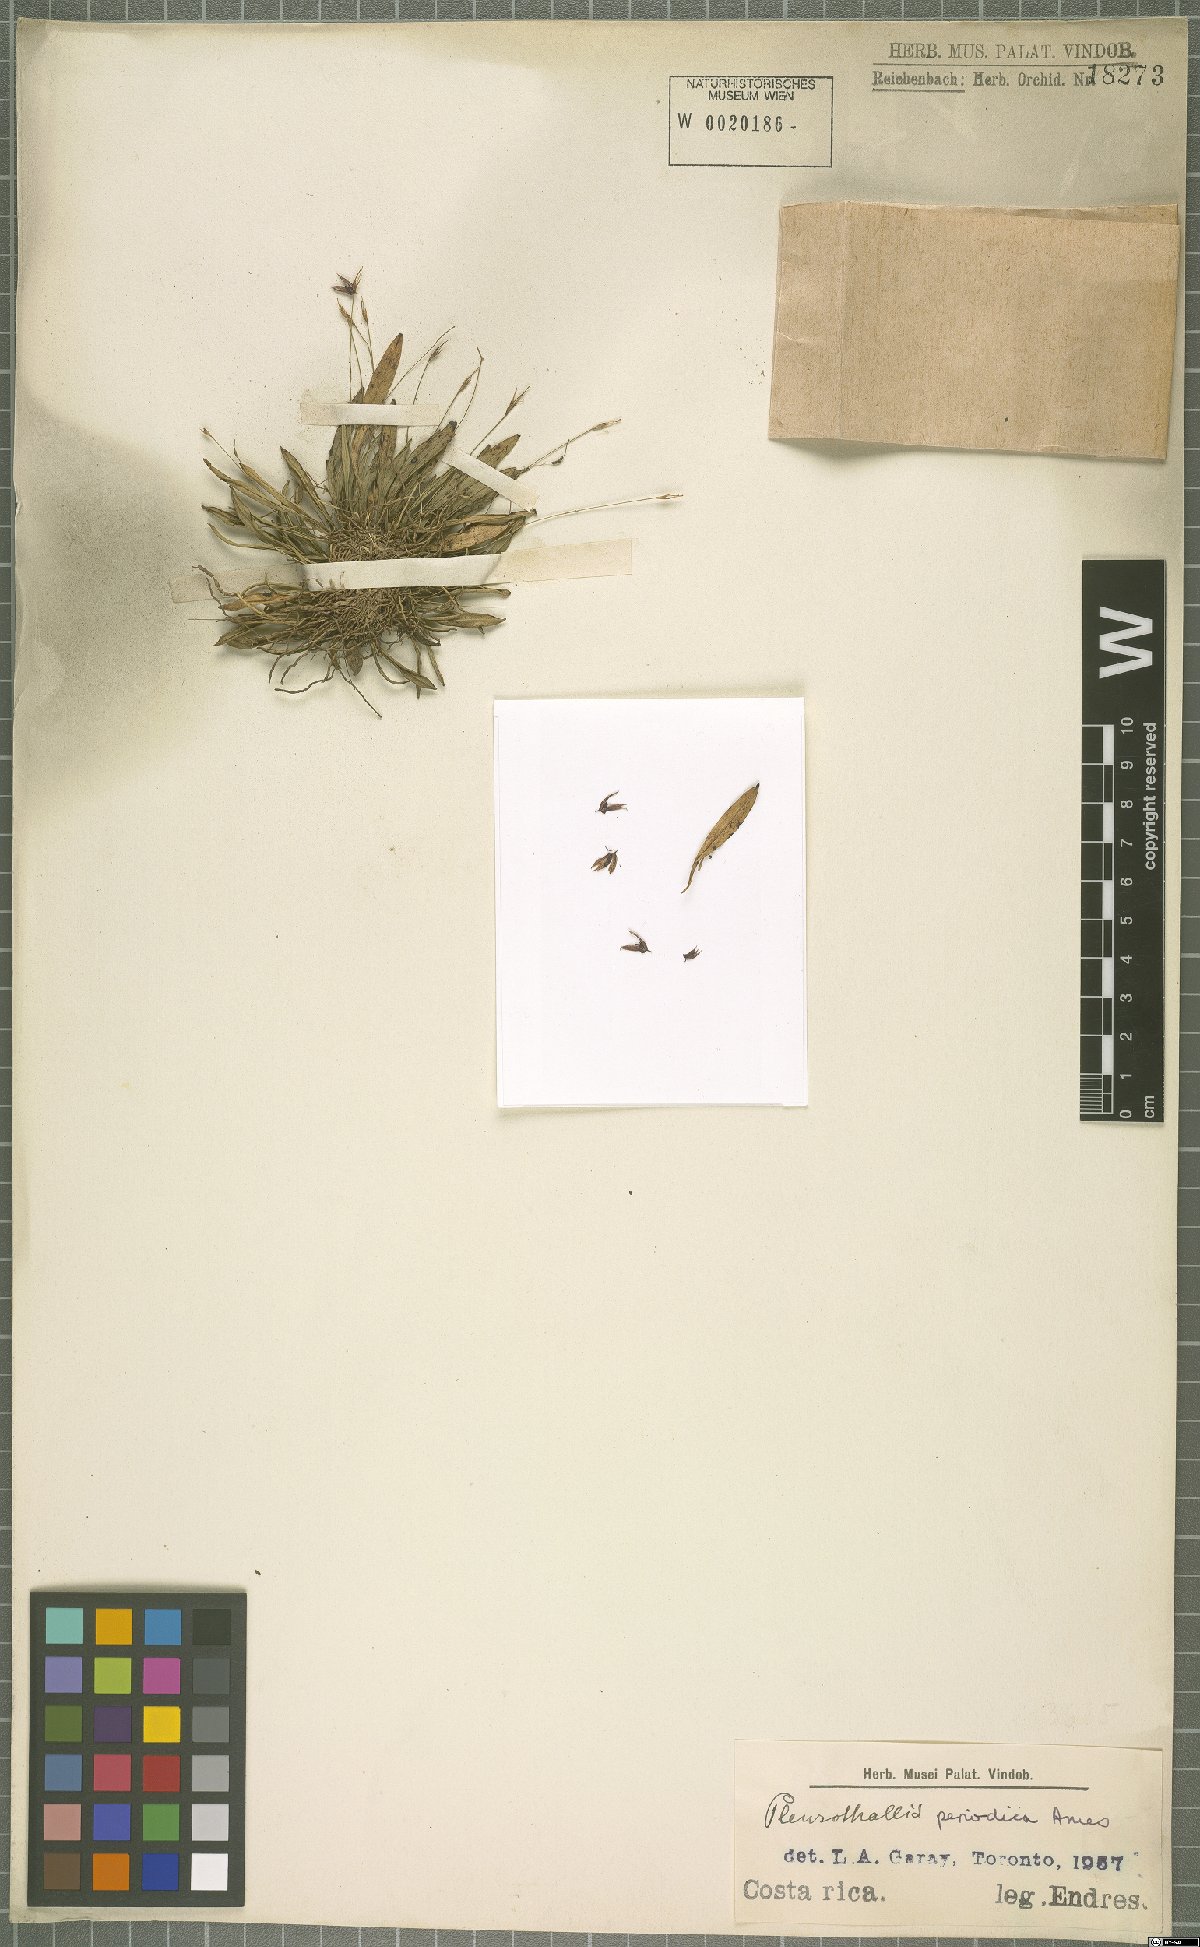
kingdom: Plantae
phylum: Tracheophyta
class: Liliopsida
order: Asparagales
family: Orchidaceae
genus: Specklinia
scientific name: Specklinia simmleriana
